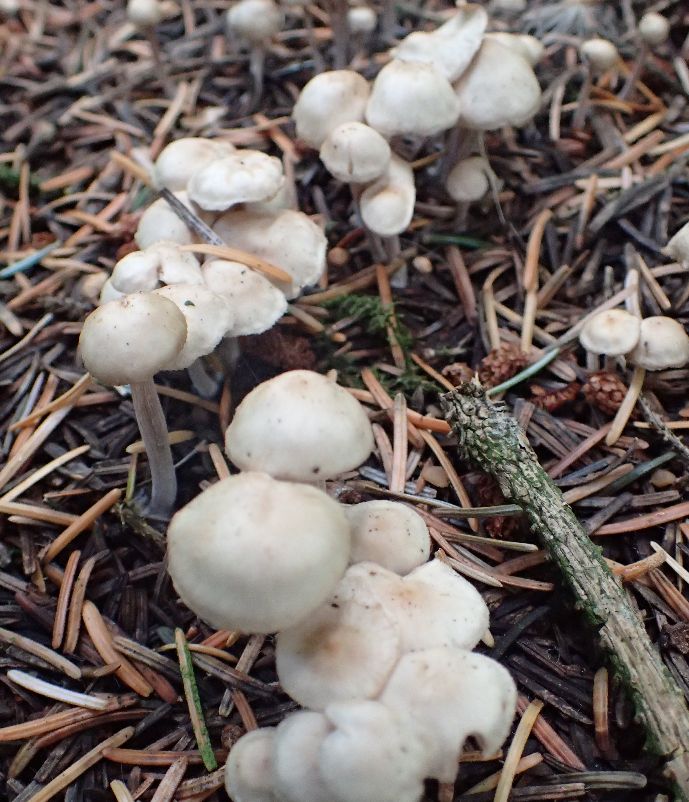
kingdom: Fungi
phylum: Basidiomycota
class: Agaricomycetes
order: Agaricales
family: Omphalotaceae
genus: Collybiopsis
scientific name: Collybiopsis confluens
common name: knippe-fladhat
